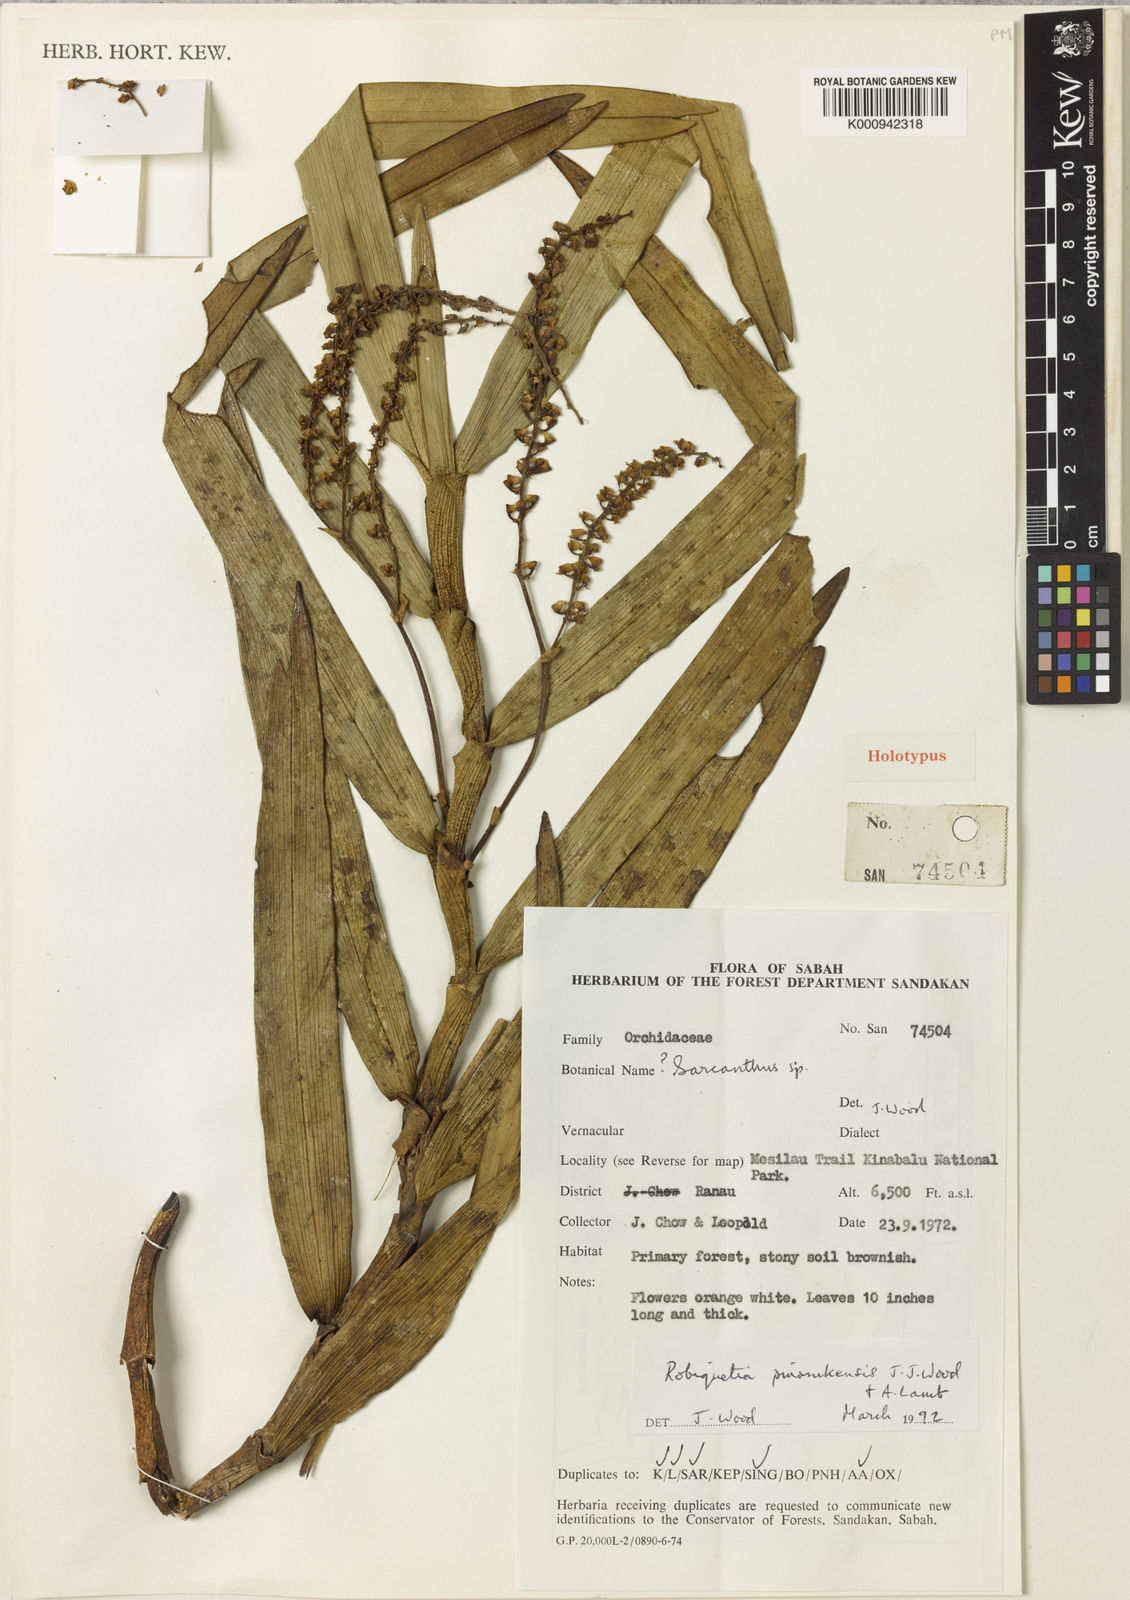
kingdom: Plantae
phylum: Tracheophyta
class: Liliopsida
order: Asparagales
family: Orchidaceae
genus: Robiquetia
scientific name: Robiquetia pinosukensis
